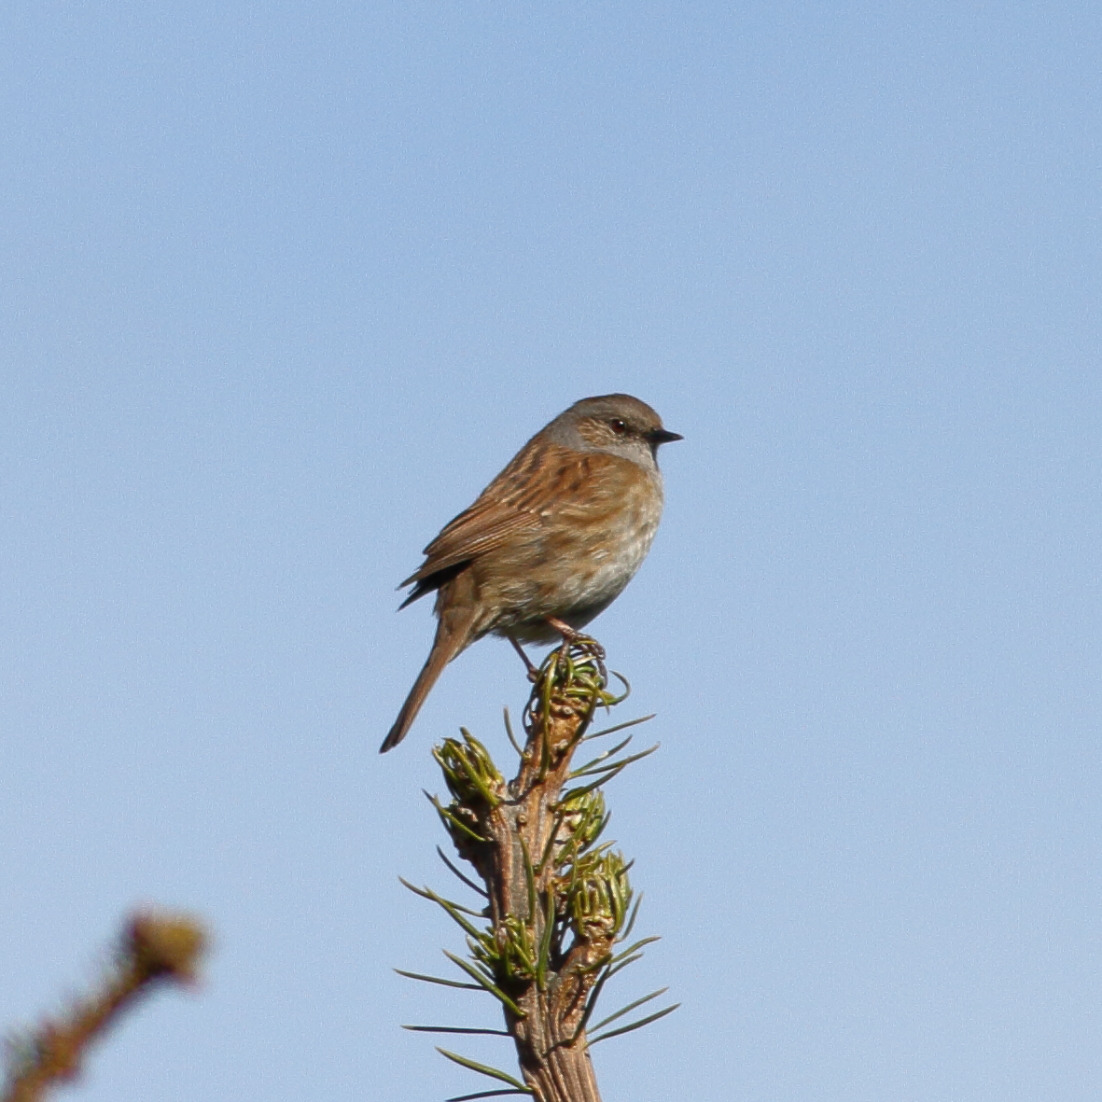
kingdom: Animalia
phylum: Chordata
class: Aves
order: Passeriformes
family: Prunellidae
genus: Prunella
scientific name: Prunella modularis
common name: Jernspurv
